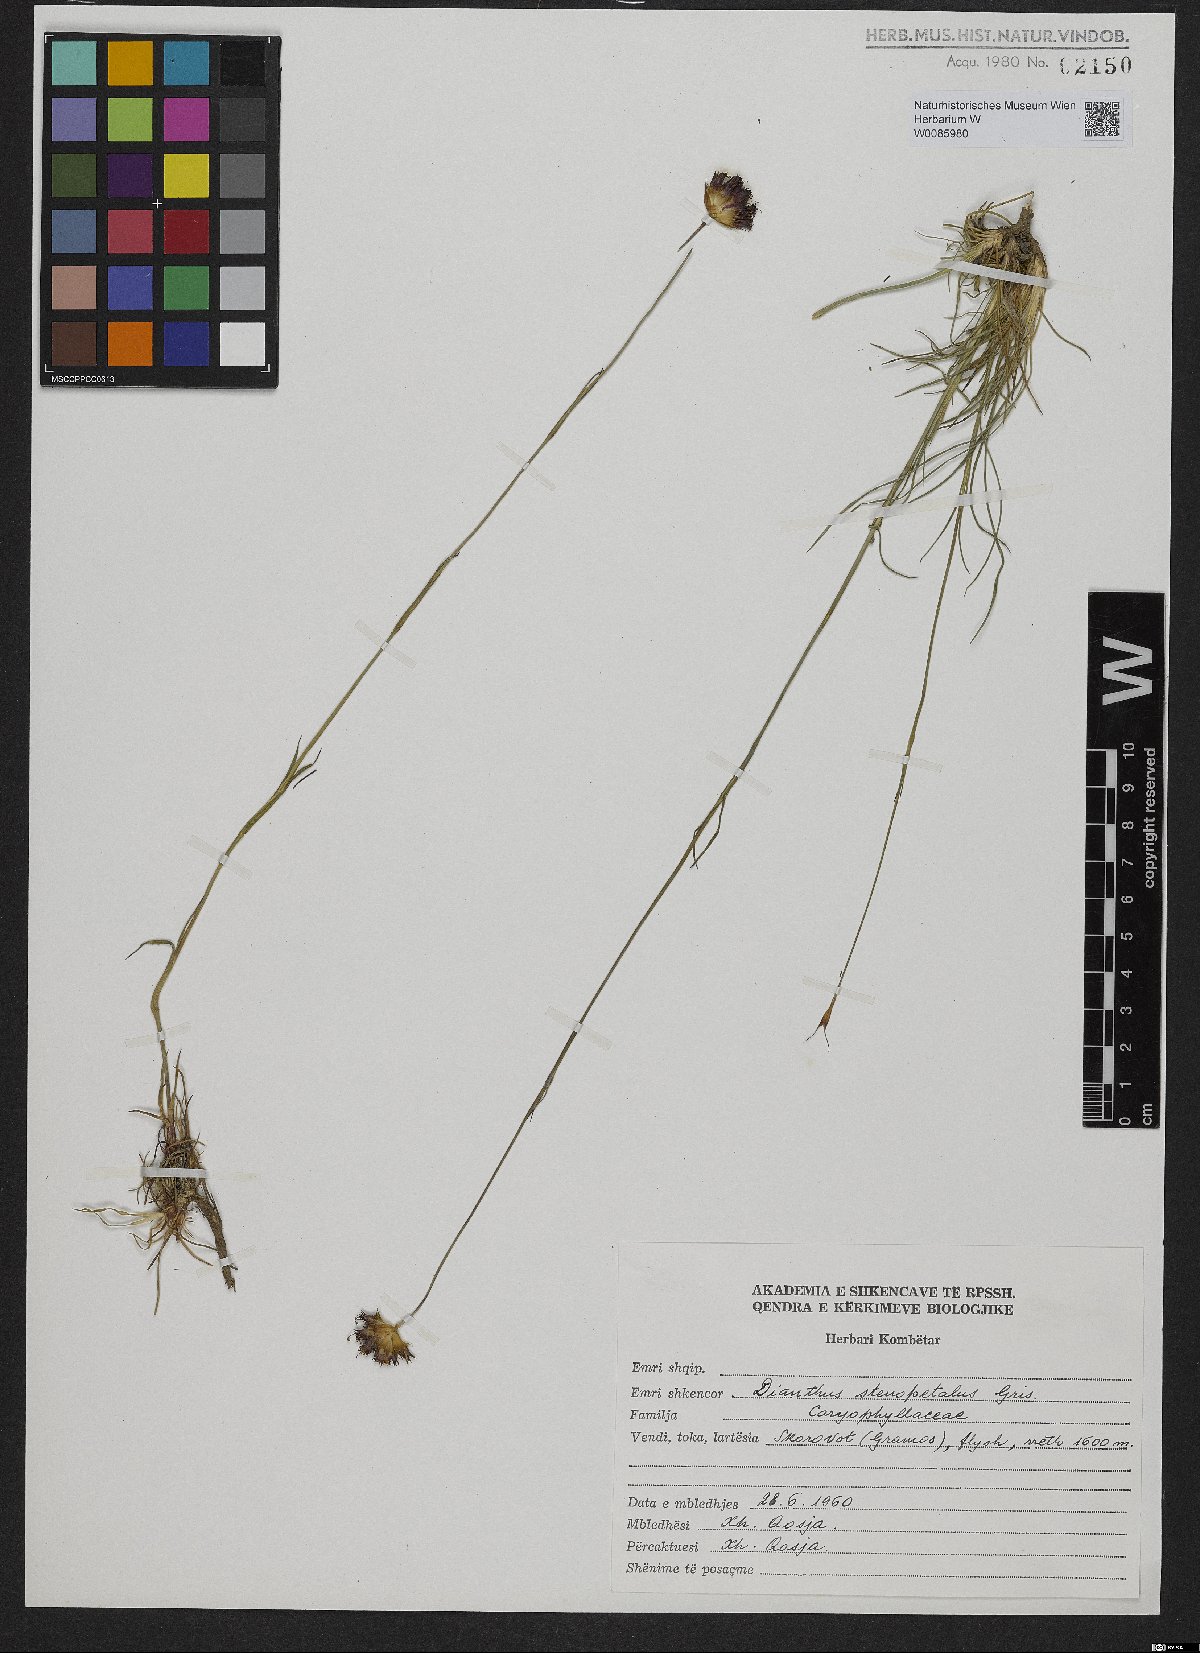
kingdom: Plantae
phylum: Tracheophyta
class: Magnoliopsida
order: Caryophyllales
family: Caryophyllaceae
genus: Dianthus
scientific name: Dianthus stenopetalus
